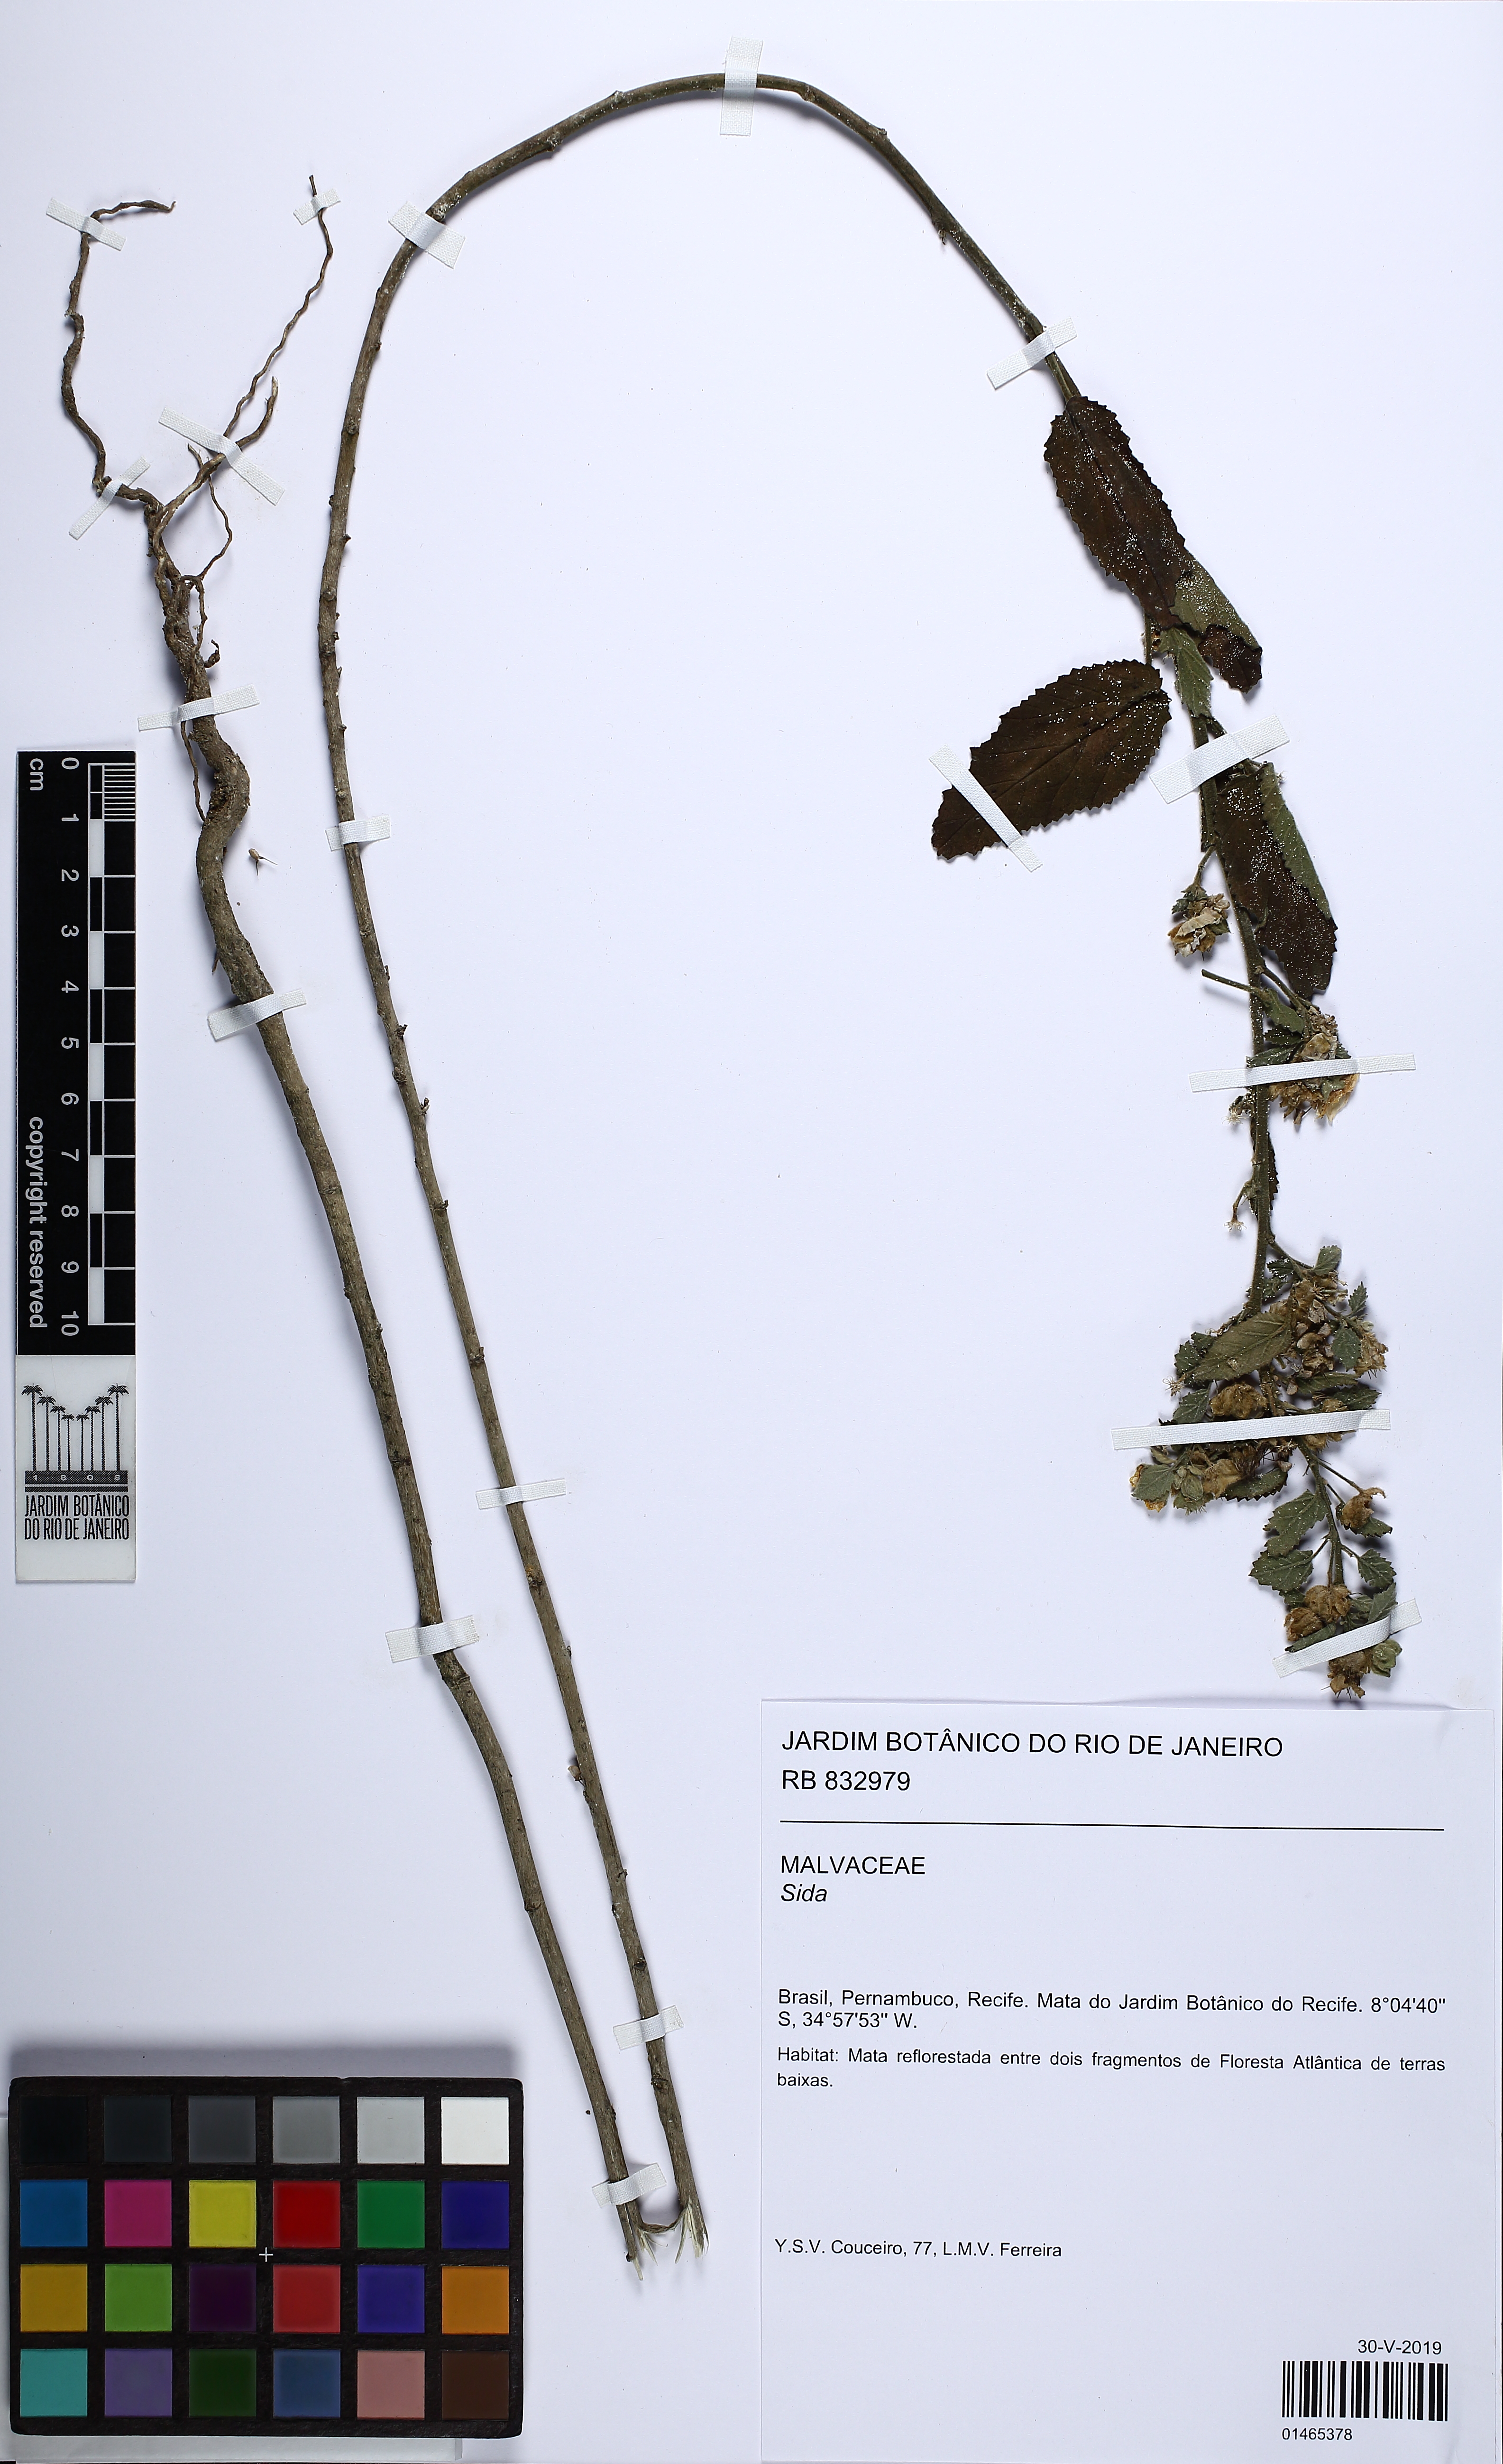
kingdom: Plantae
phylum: Tracheophyta
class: Magnoliopsida
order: Malvales
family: Malvaceae
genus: Sida
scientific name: Sida
